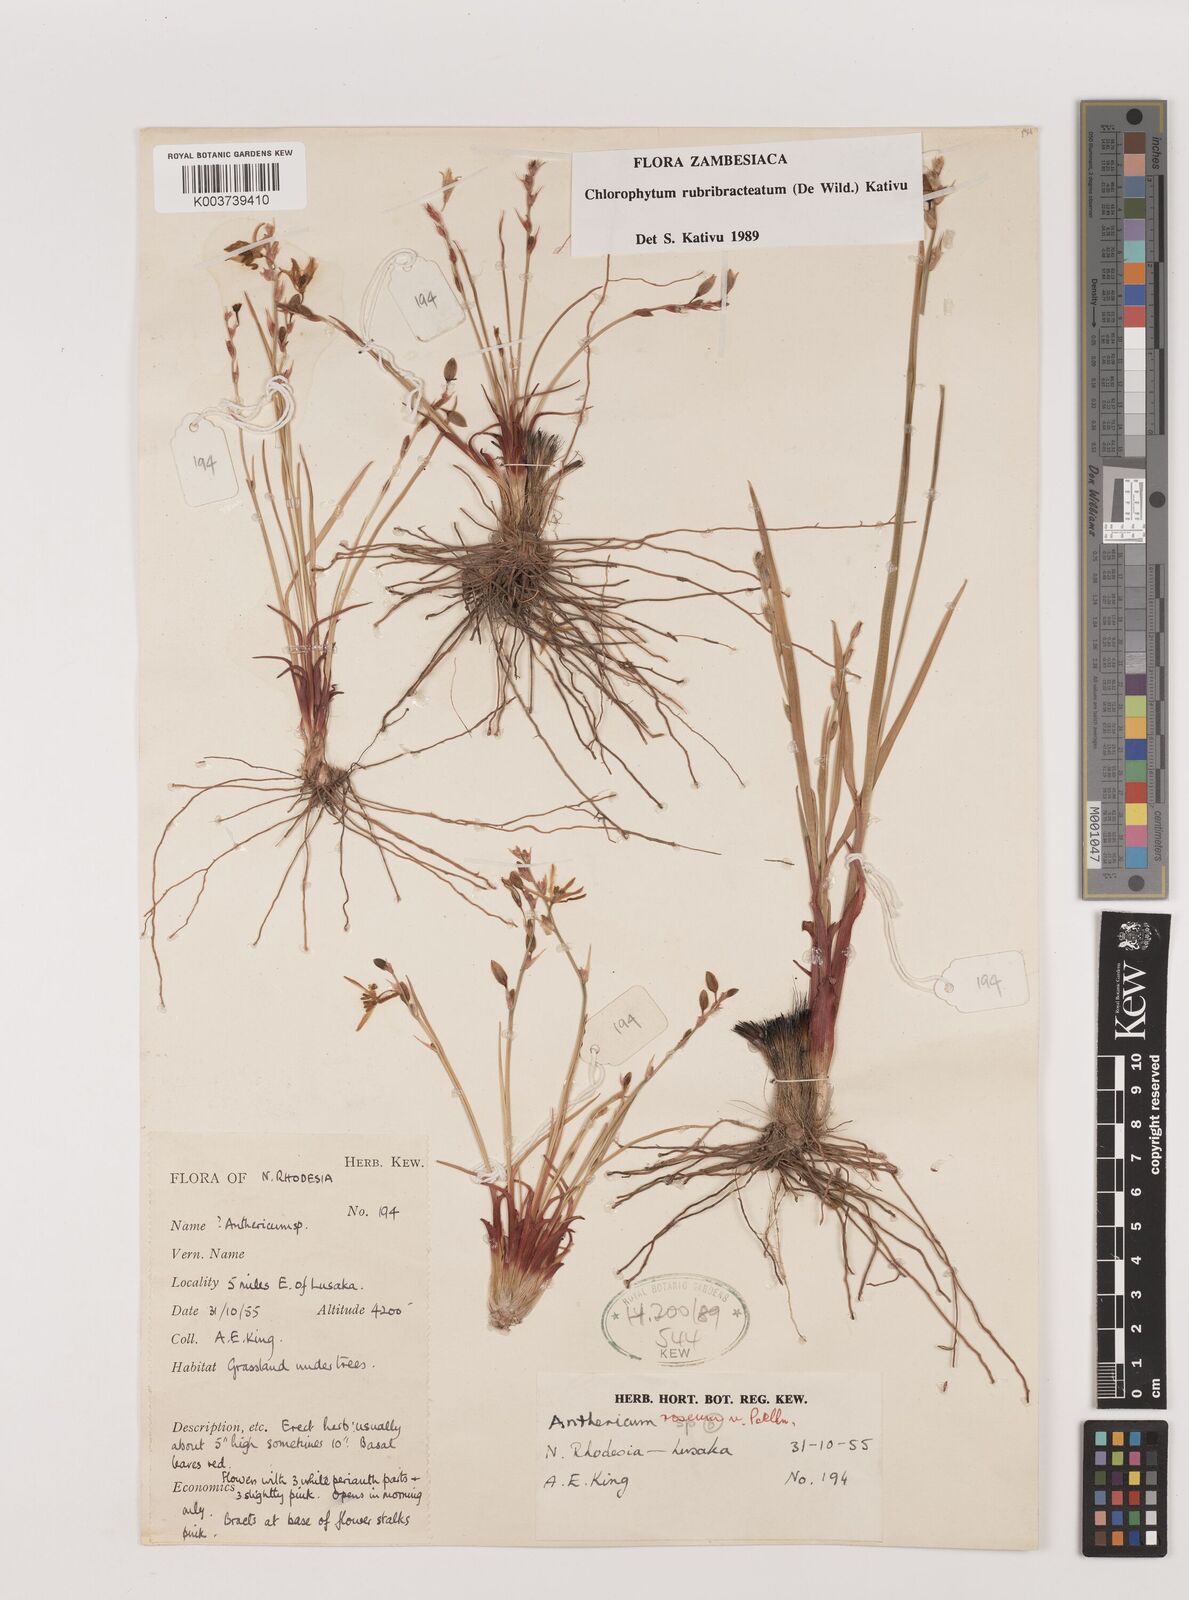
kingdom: Plantae
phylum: Tracheophyta
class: Liliopsida
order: Asparagales
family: Asparagaceae
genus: Chlorophytum
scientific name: Chlorophytum rubribracteatum
